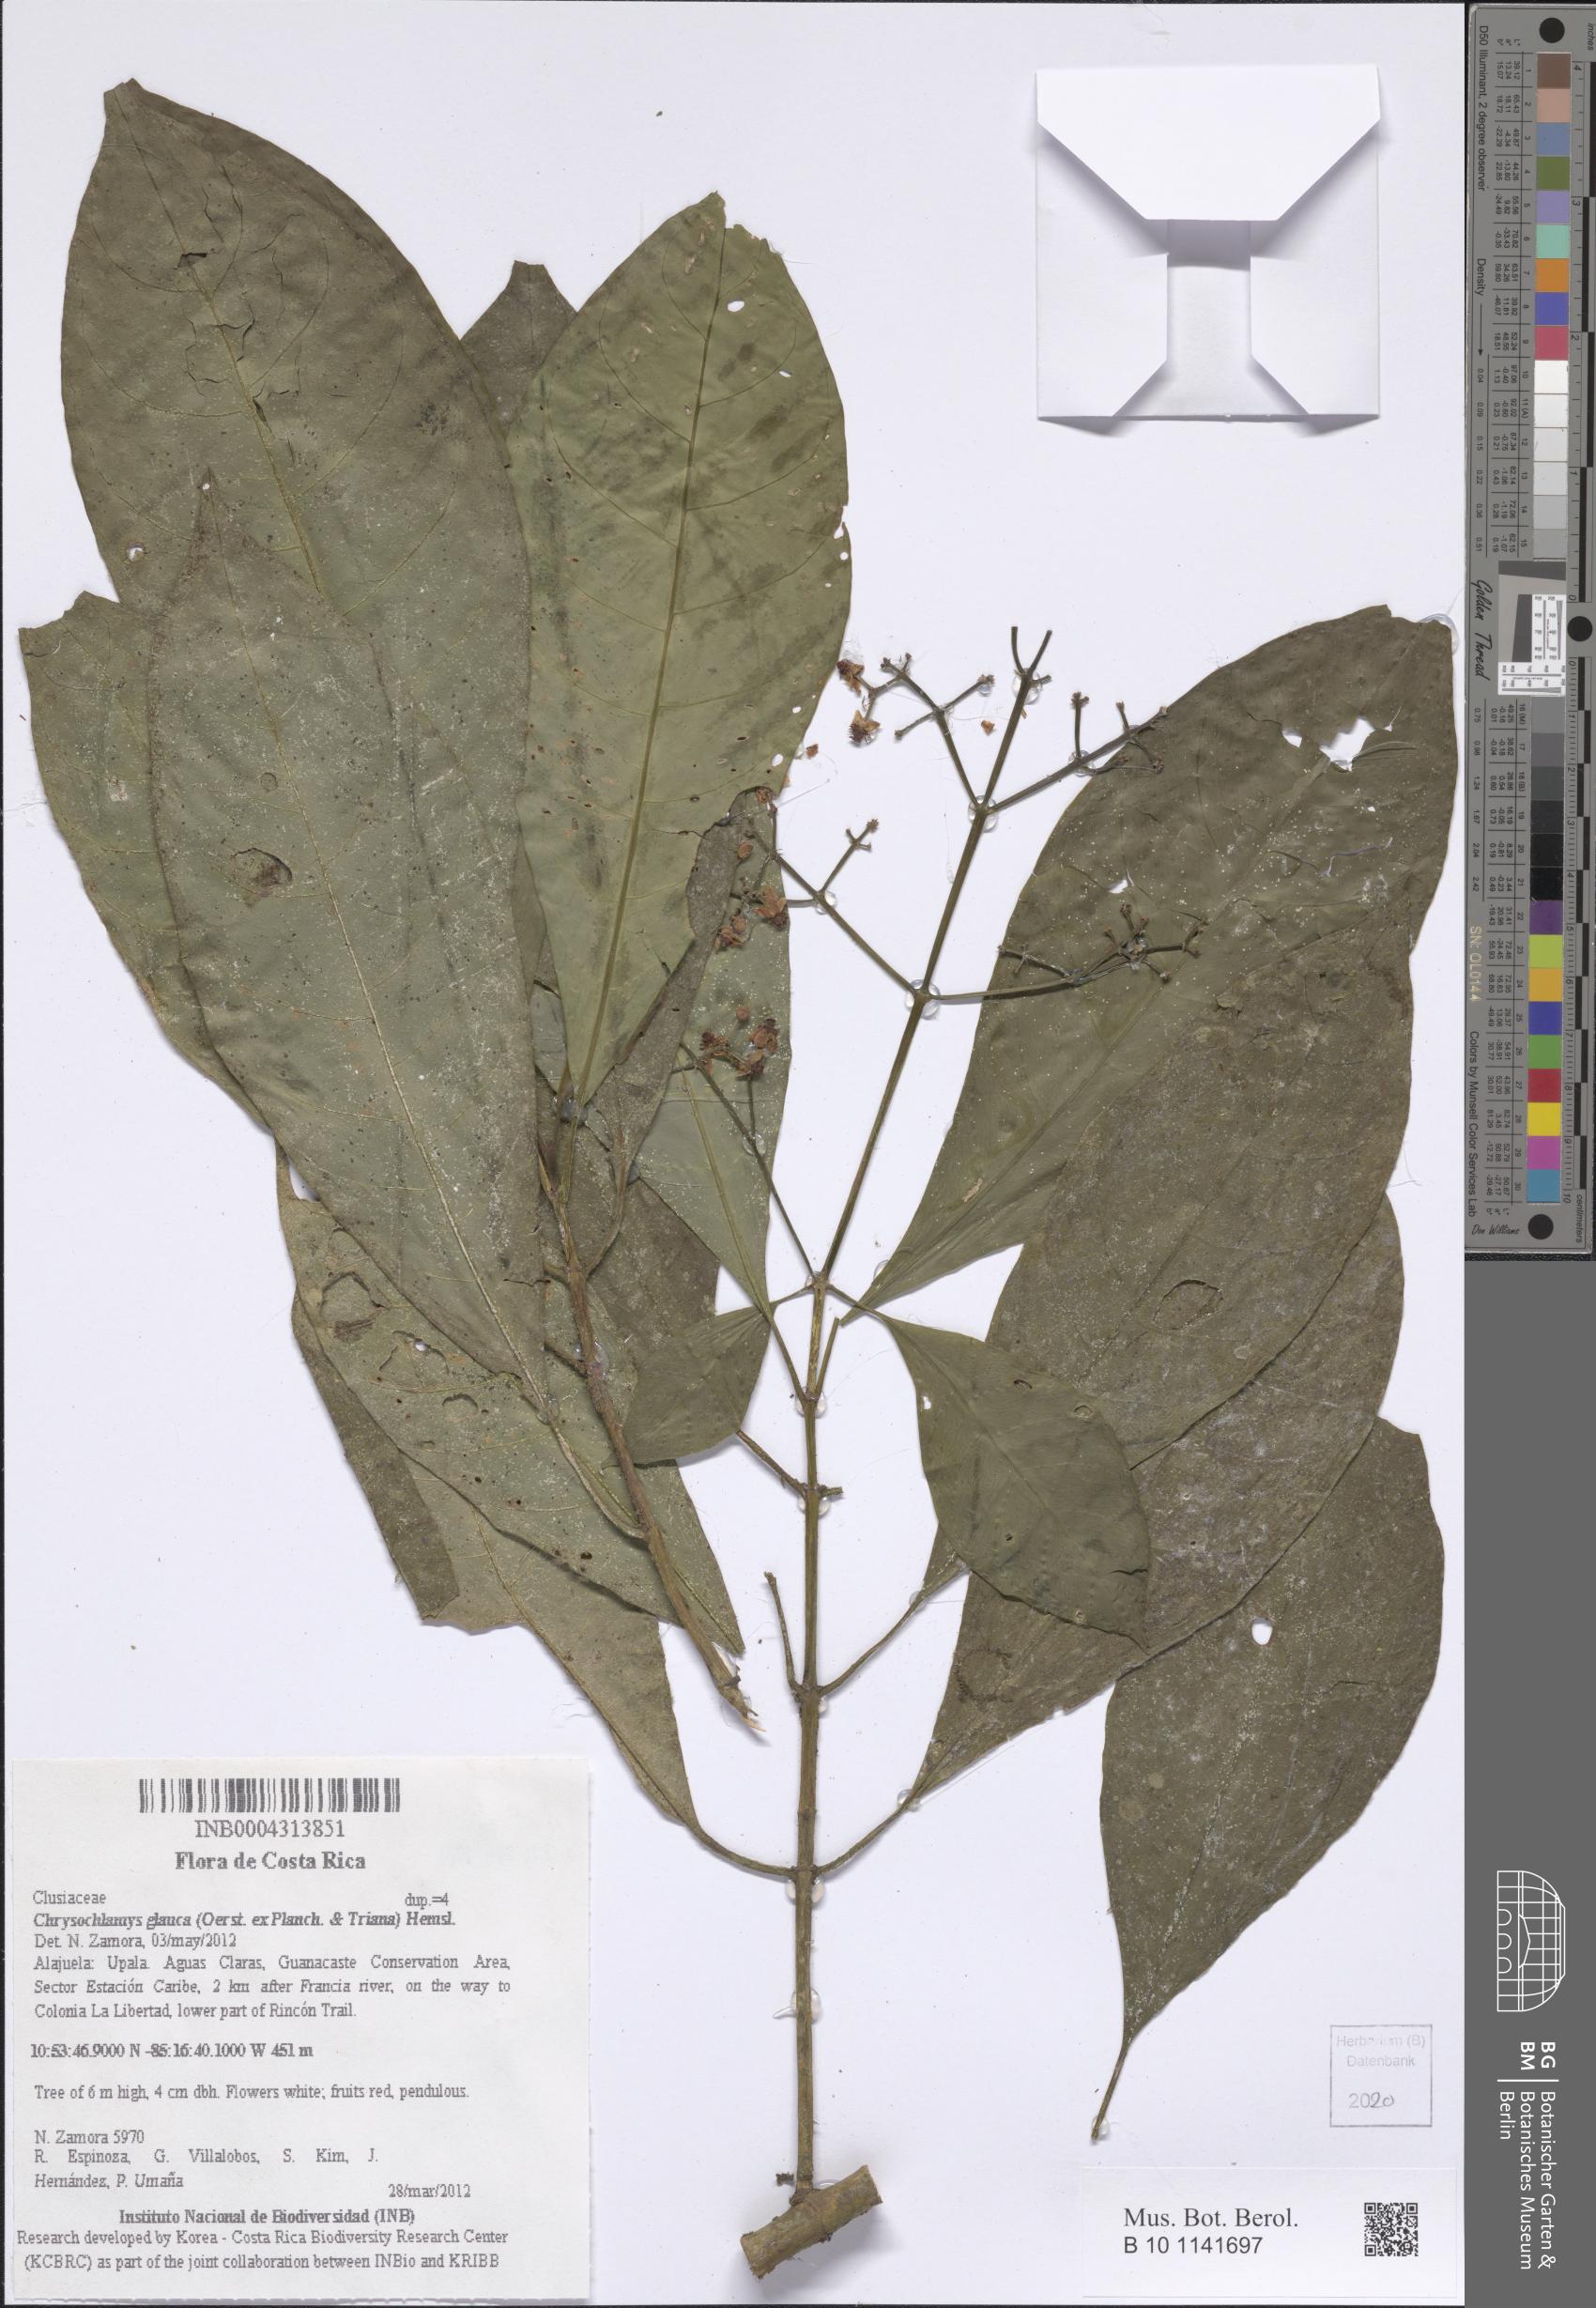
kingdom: Plantae
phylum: Tracheophyta
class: Magnoliopsida
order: Malpighiales
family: Clusiaceae
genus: Chrysochlamys
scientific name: Chrysochlamys glauca
